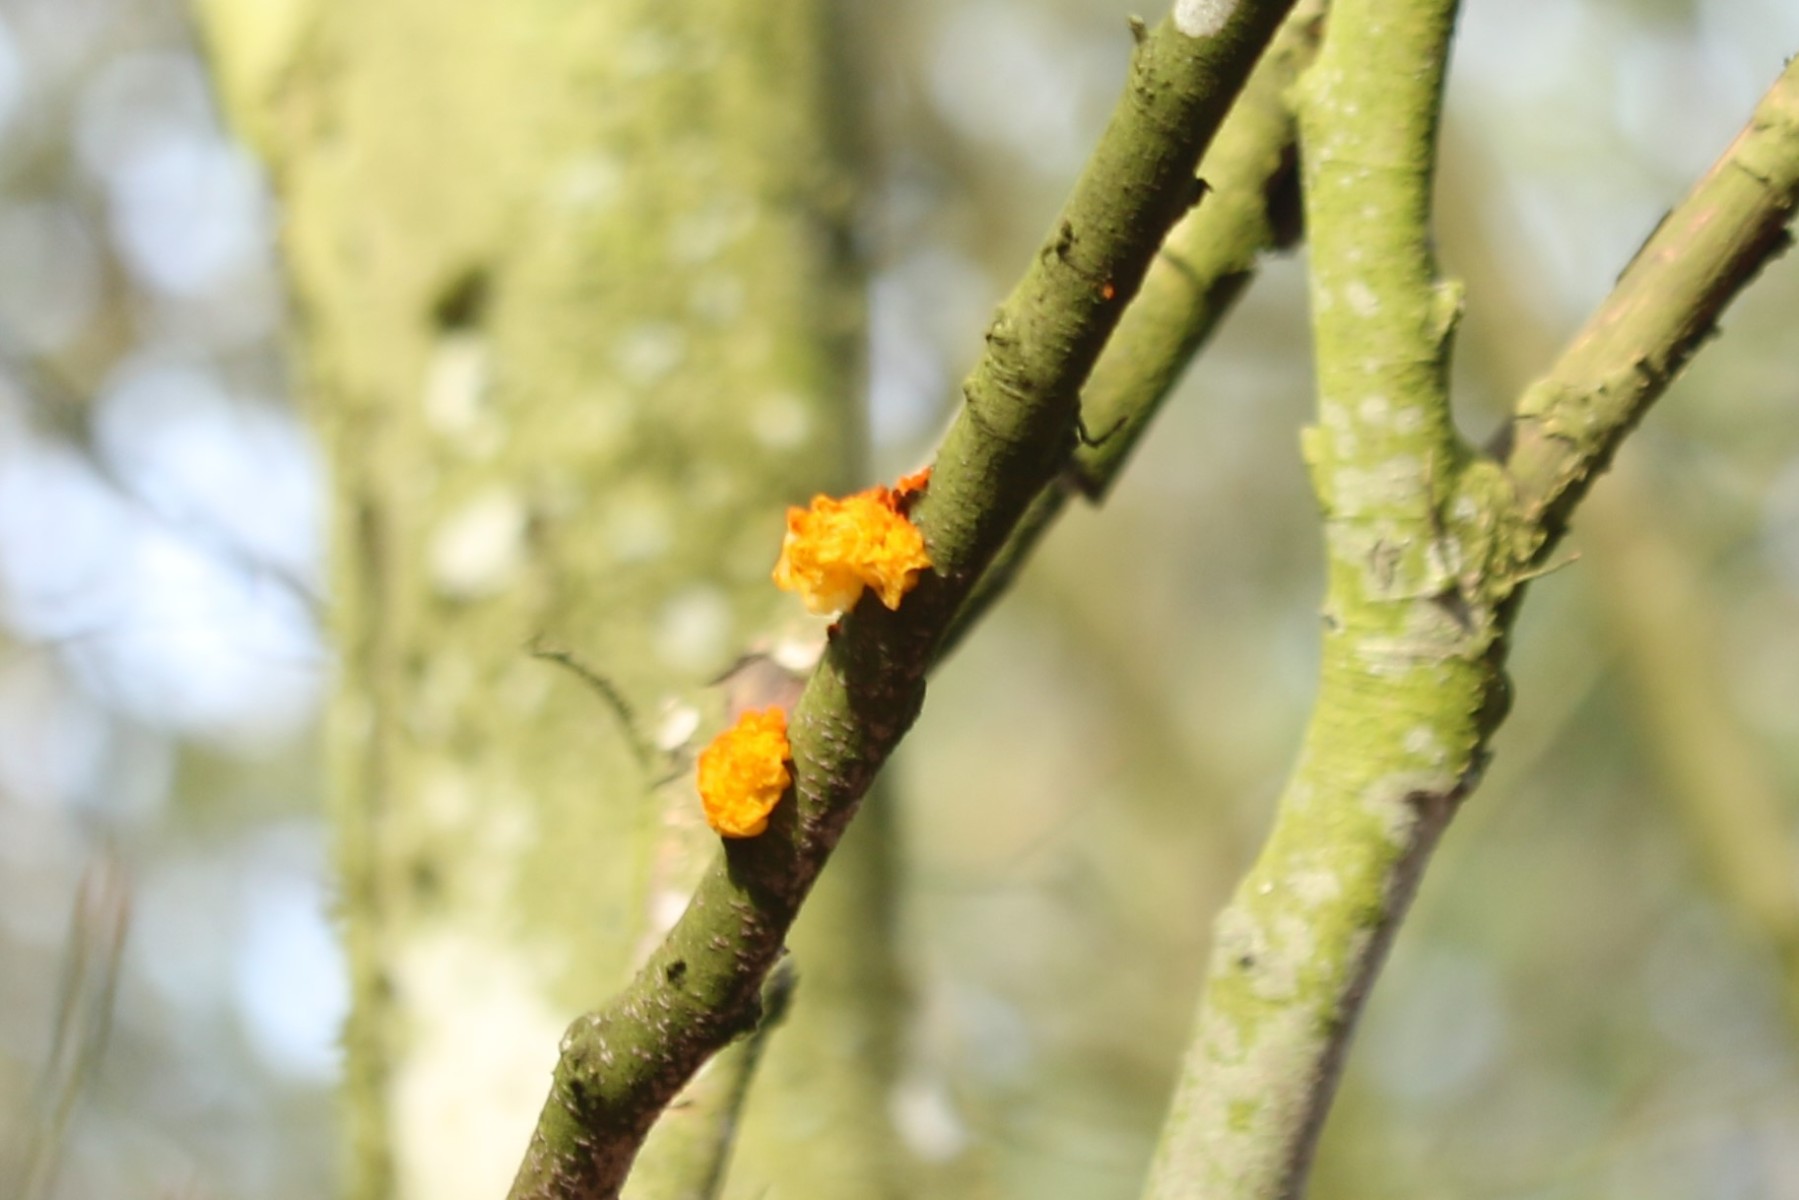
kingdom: Fungi
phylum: Basidiomycota
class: Tremellomycetes
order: Tremellales
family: Tremellaceae
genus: Tremella
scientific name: Tremella mesenterica
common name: gul bævresvamp
